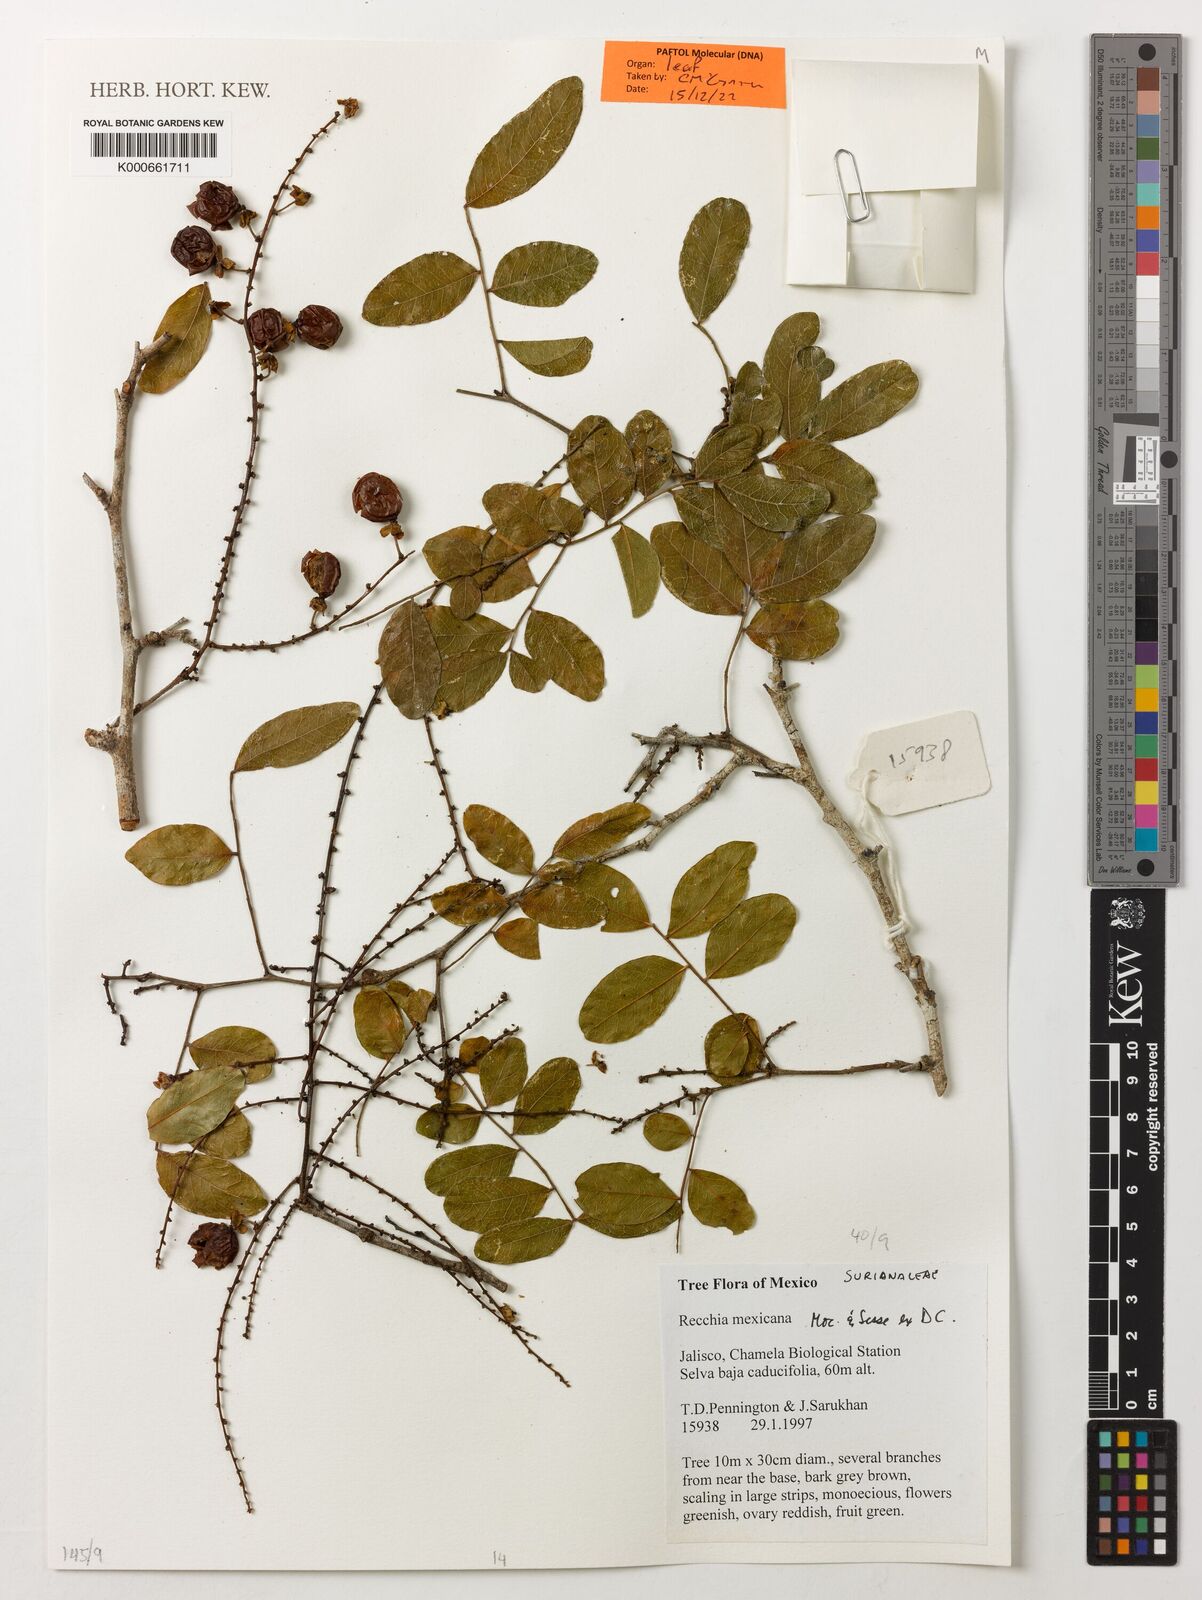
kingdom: Plantae
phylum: Tracheophyta
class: Magnoliopsida
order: Fabales
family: Surianaceae
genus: Recchia
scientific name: Recchia mexicana
